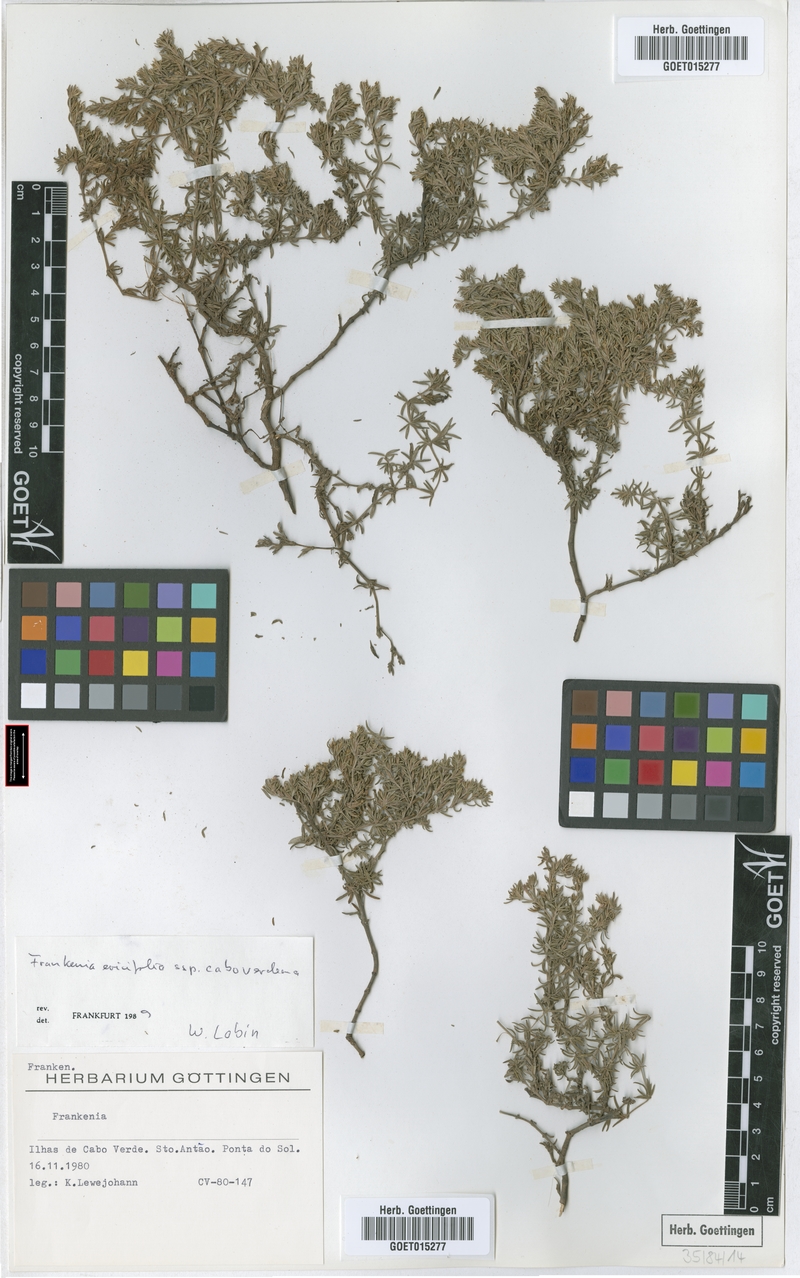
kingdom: Plantae
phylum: Tracheophyta
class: Magnoliopsida
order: Caryophyllales
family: Frankeniaceae
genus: Frankenia
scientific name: Frankenia caboverdeana
